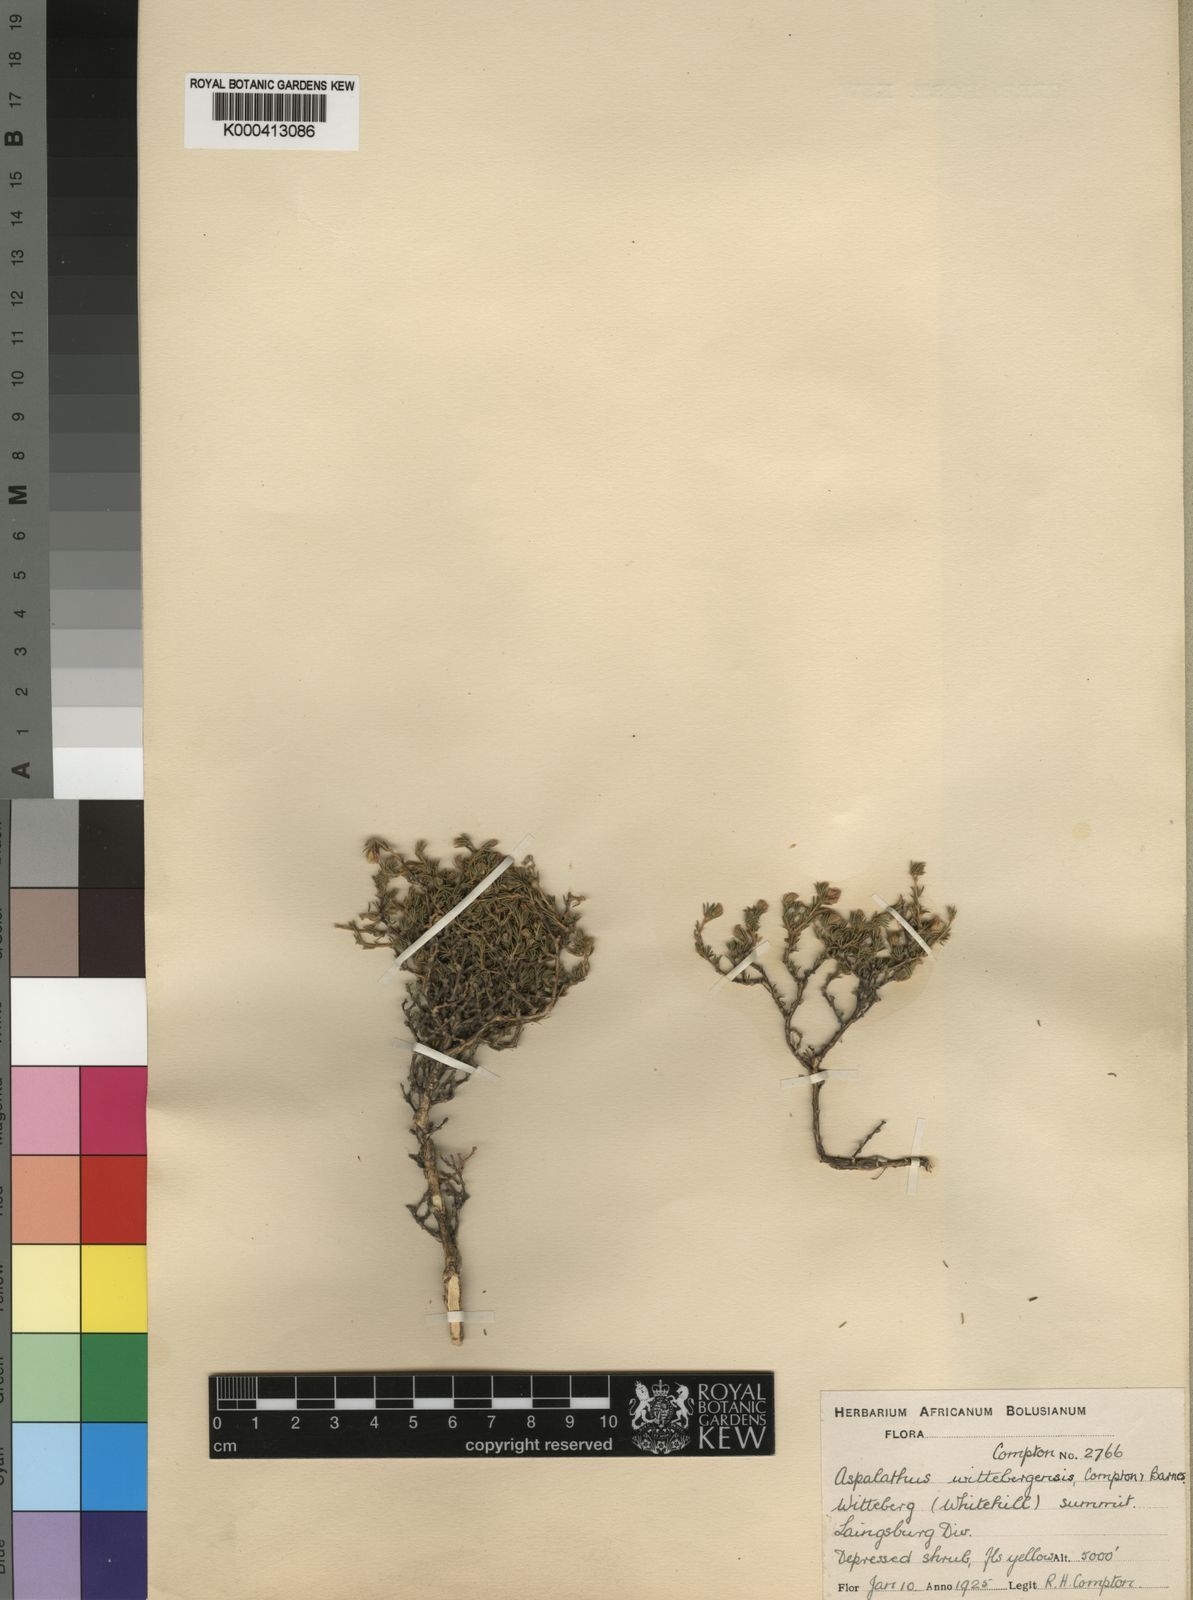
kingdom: Plantae
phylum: Tracheophyta
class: Magnoliopsida
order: Fabales
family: Fabaceae
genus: Aspalathus
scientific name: Aspalathus wittebergensis
